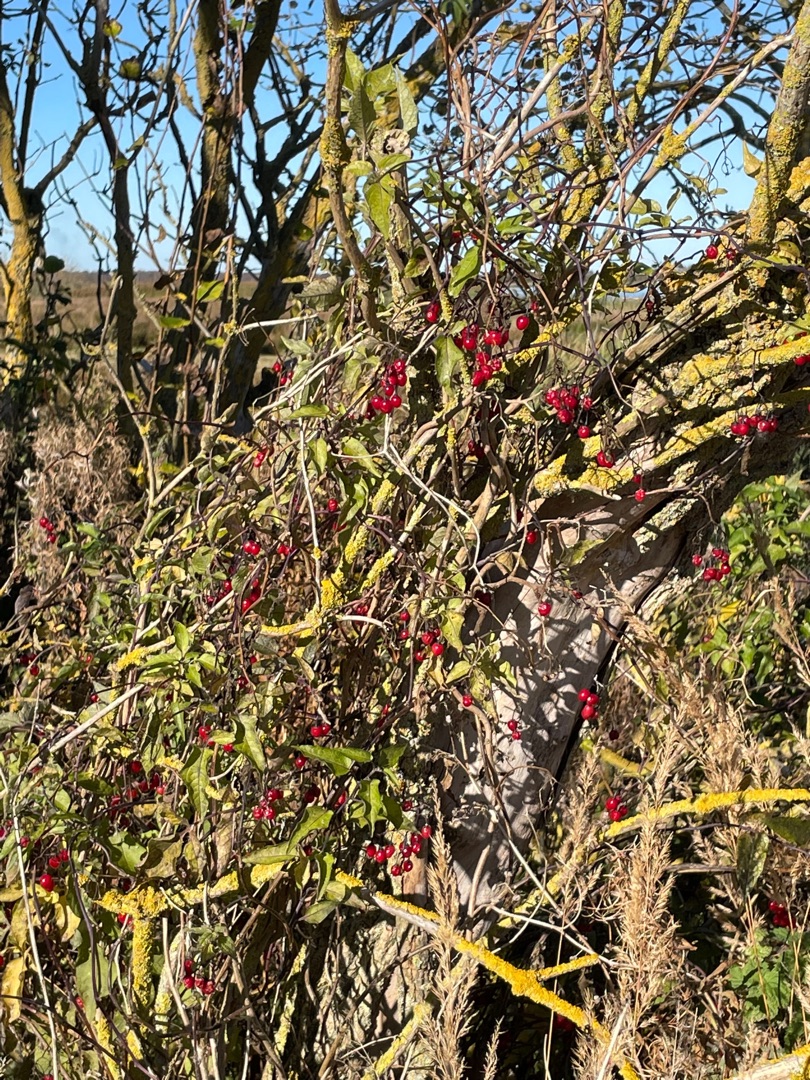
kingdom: Plantae
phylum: Tracheophyta
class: Magnoliopsida
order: Solanales
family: Solanaceae
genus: Solanum
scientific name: Solanum dulcamara
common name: Bittersød natskygge
